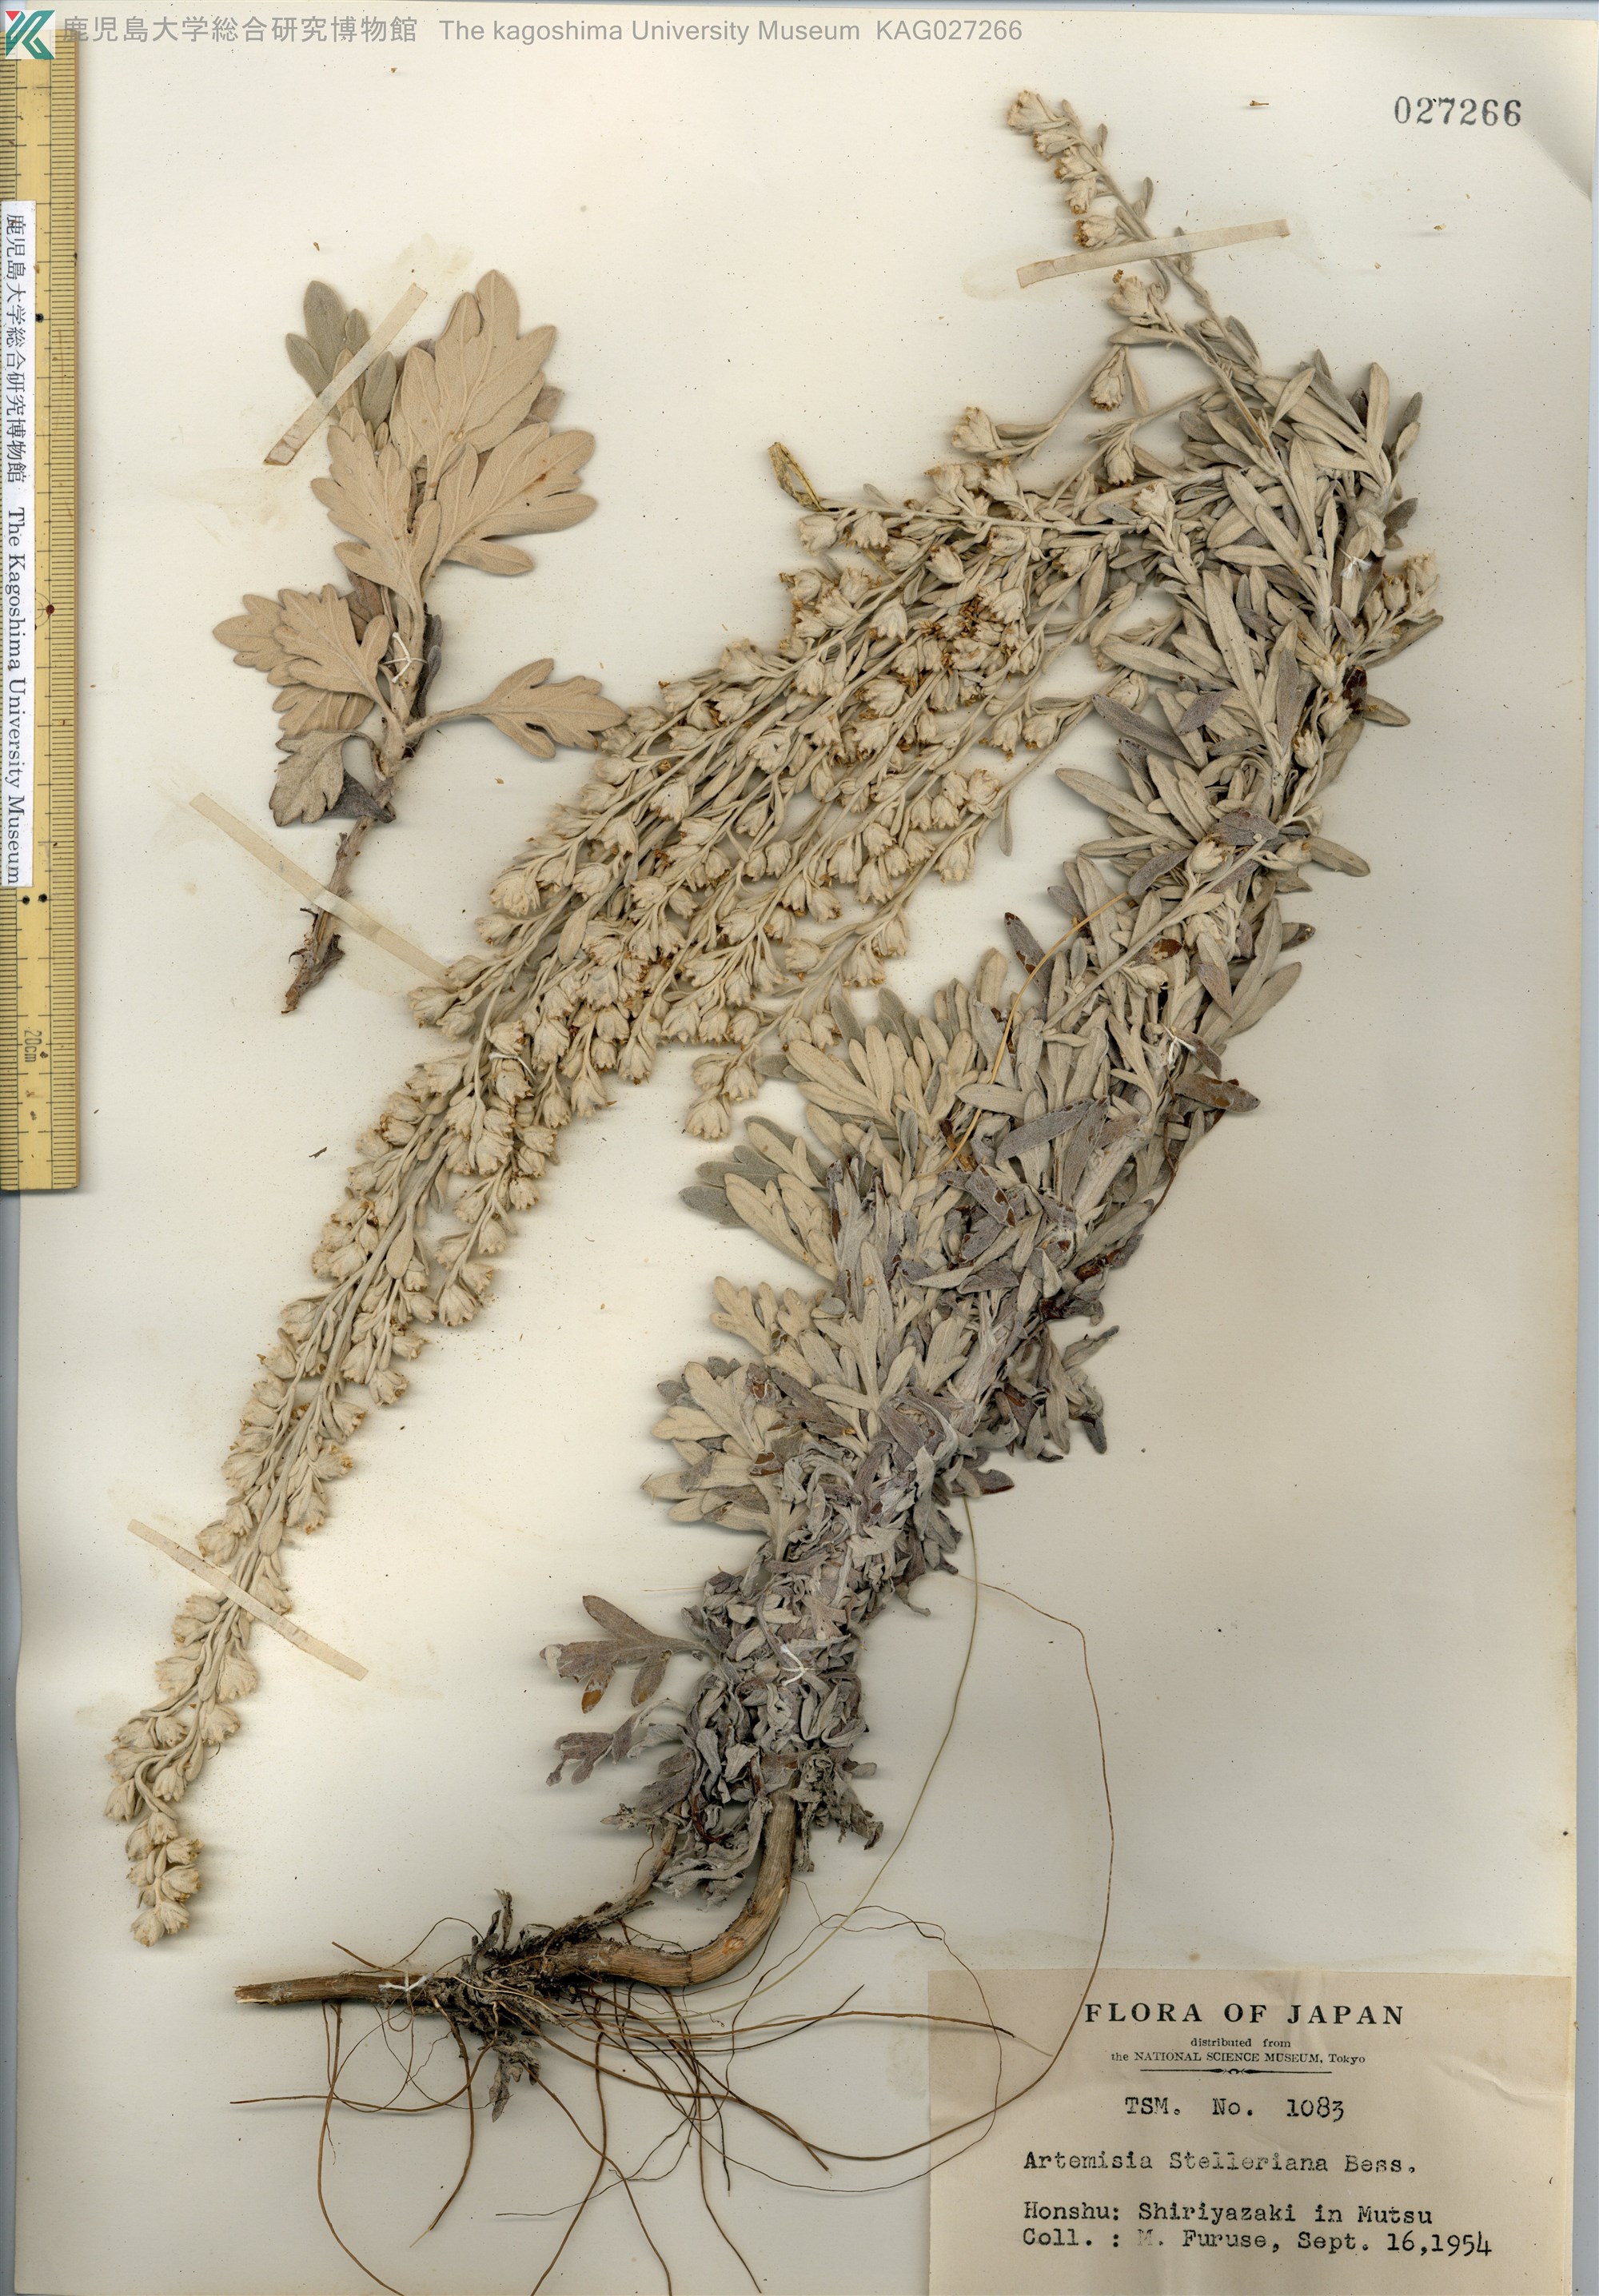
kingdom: Plantae
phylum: Tracheophyta
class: Magnoliopsida
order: Asterales
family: Asteraceae
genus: Artemisia
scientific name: Artemisia stelleriana
